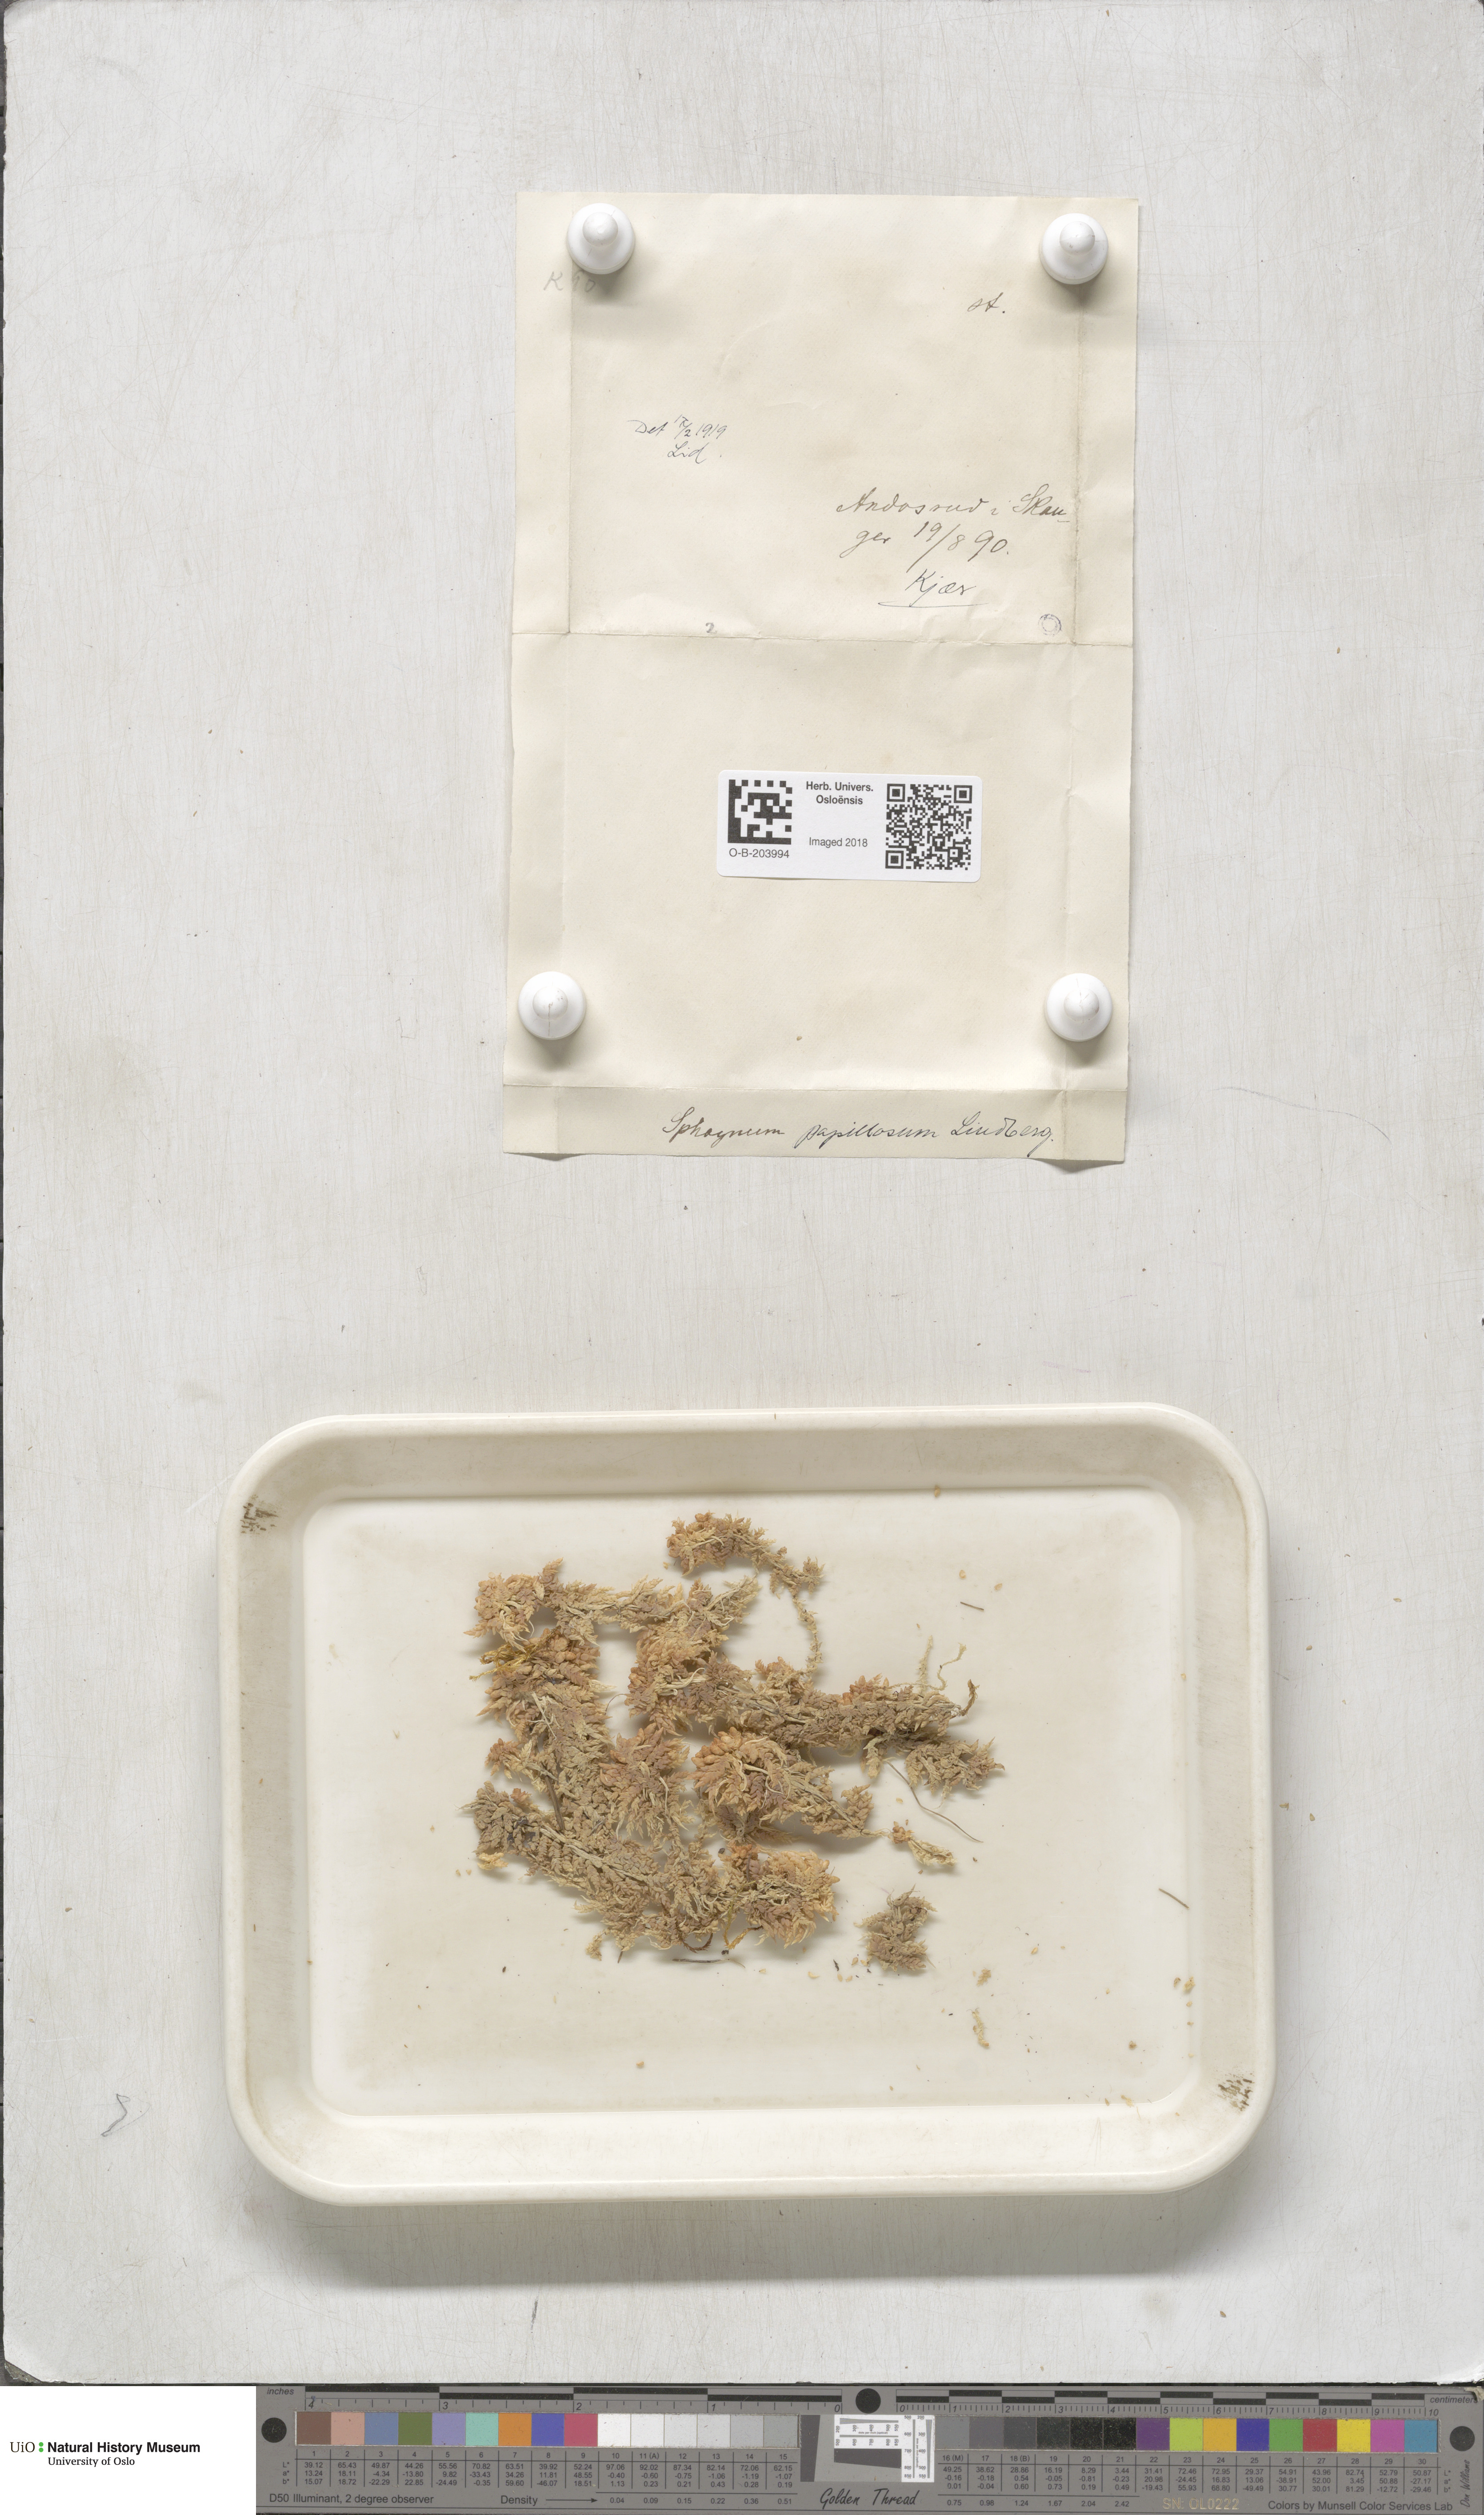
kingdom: Plantae
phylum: Bryophyta
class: Sphagnopsida
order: Sphagnales
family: Sphagnaceae
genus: Sphagnum
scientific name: Sphagnum papillosum
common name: Papillose peat moss
